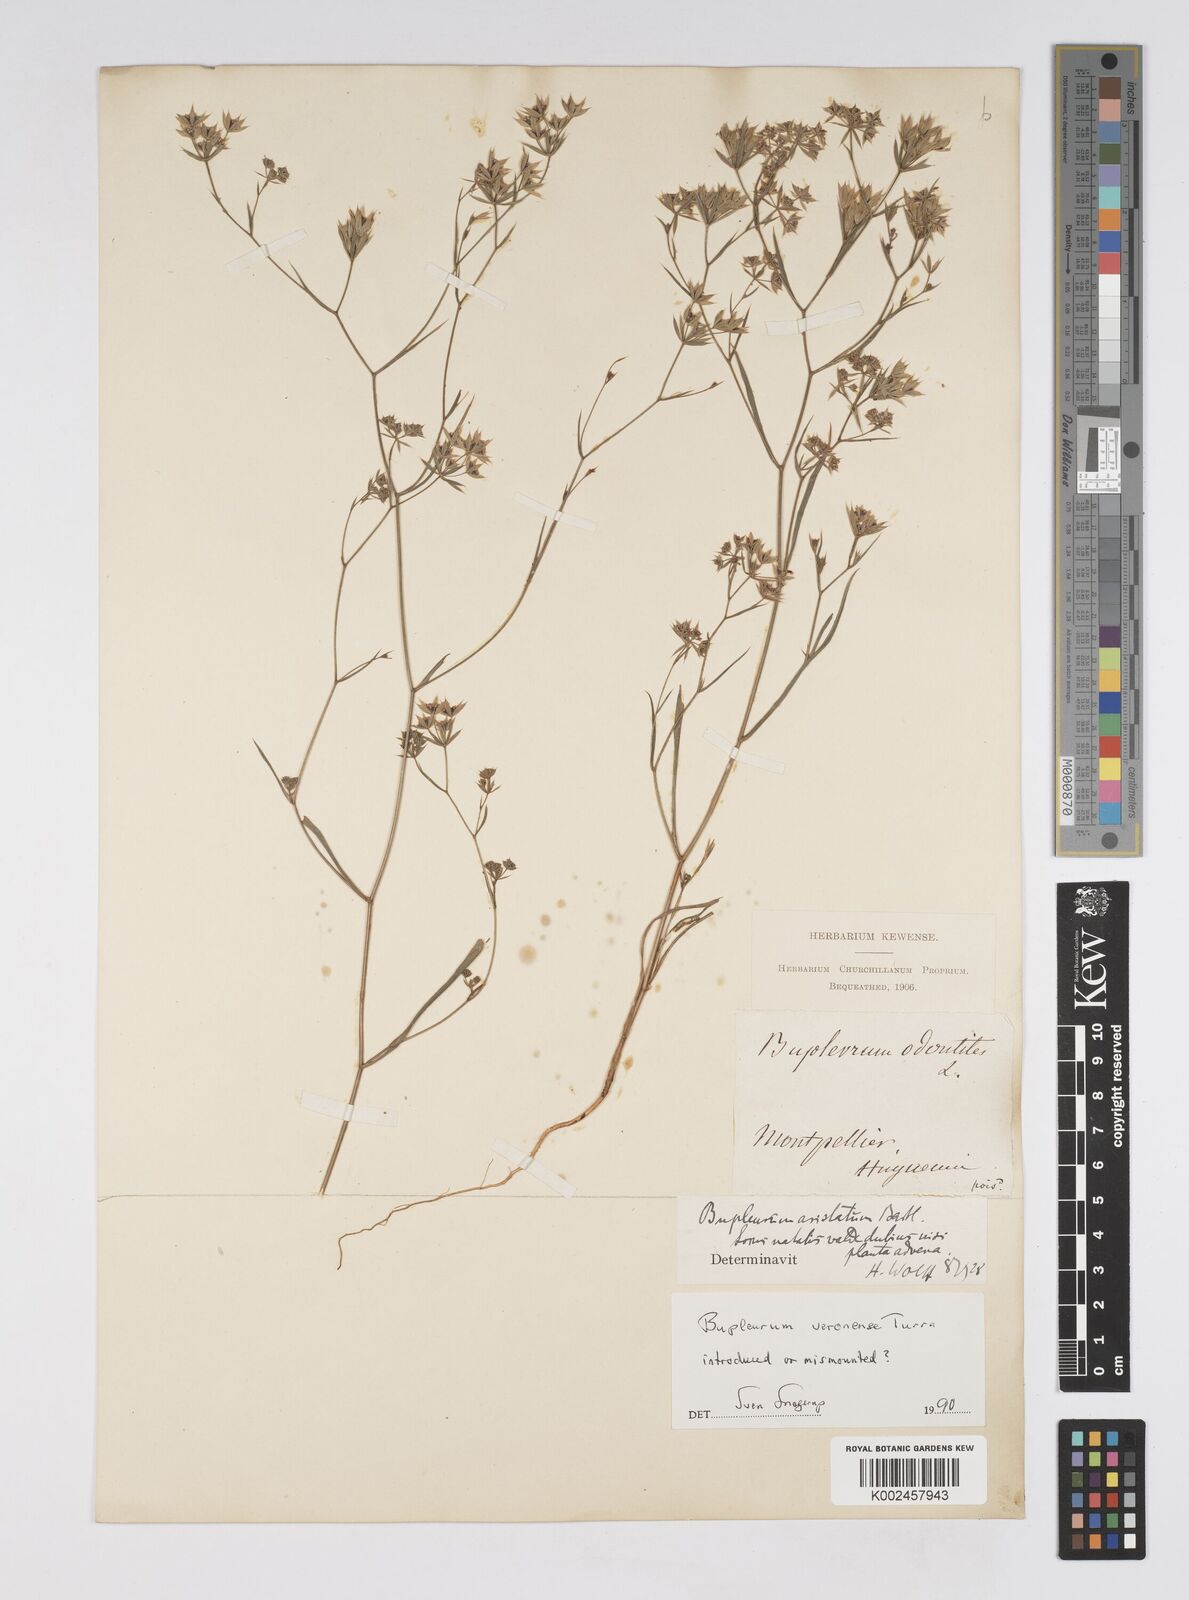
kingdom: Plantae
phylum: Tracheophyta
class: Magnoliopsida
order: Apiales
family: Apiaceae
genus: Bupleurum
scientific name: Bupleurum glumaceum
